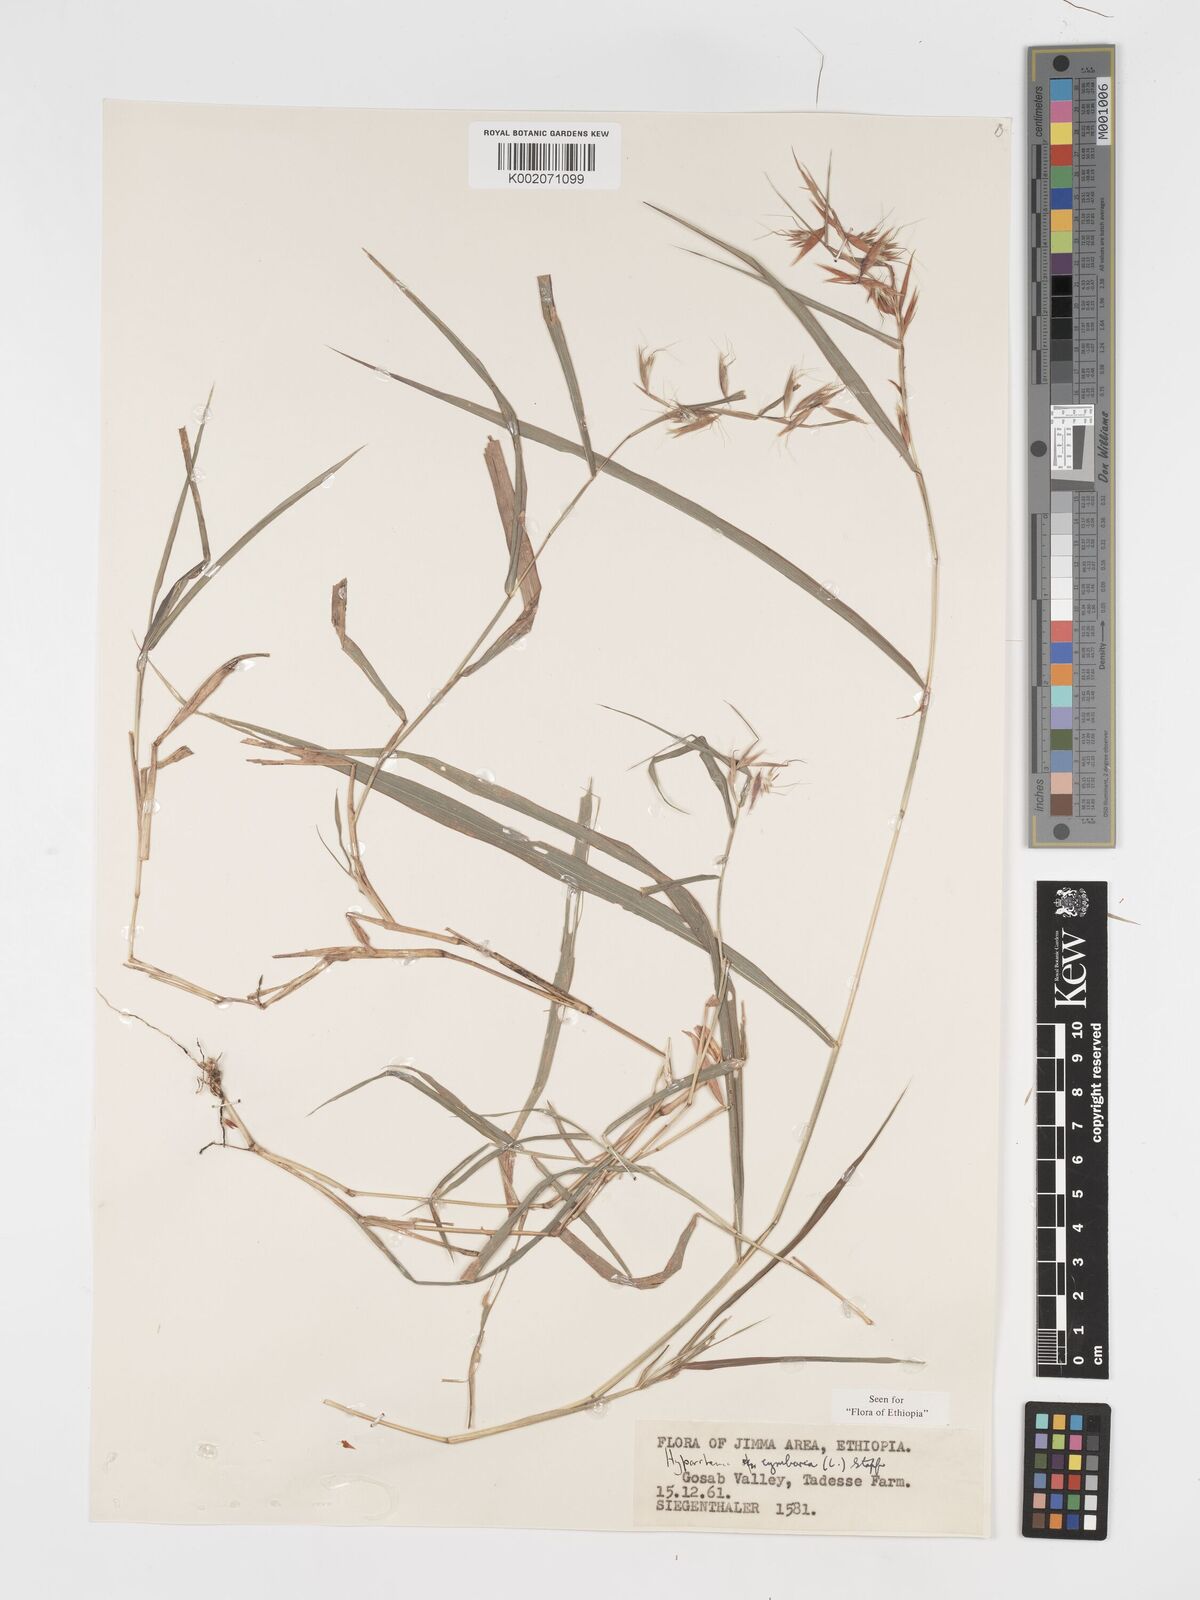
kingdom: Plantae
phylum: Tracheophyta
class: Liliopsida
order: Poales
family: Poaceae
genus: Hyparrhenia
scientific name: Hyparrhenia cymbaria
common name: Boat thatching grass
